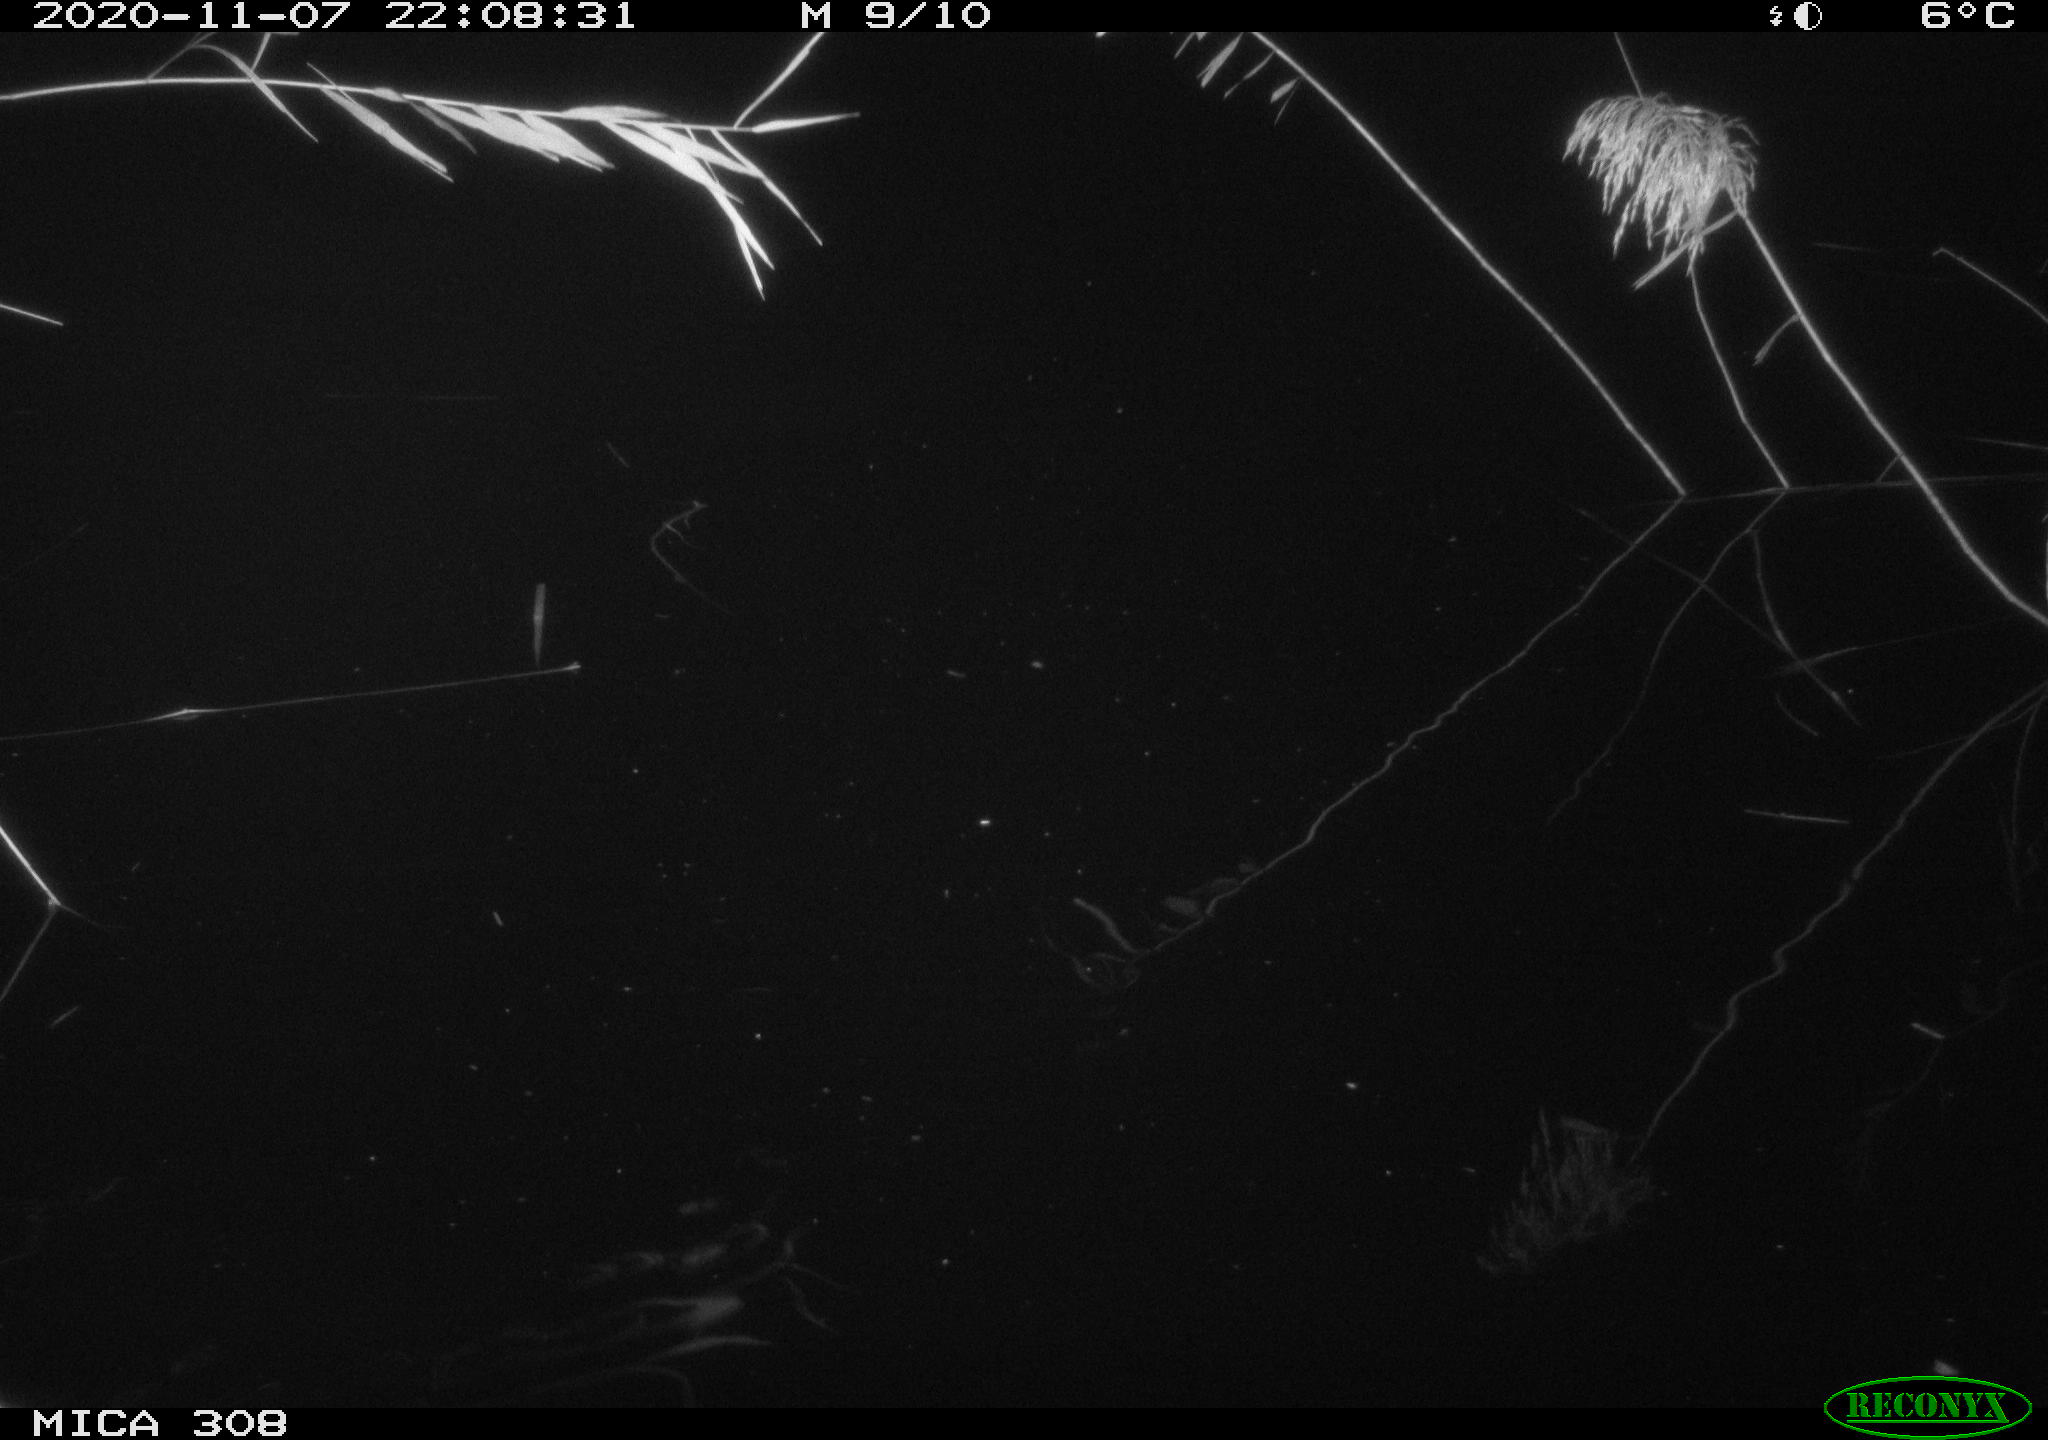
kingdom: Animalia
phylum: Chordata
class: Mammalia
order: Rodentia
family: Muridae
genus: Rattus
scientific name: Rattus norvegicus
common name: Brown rat
